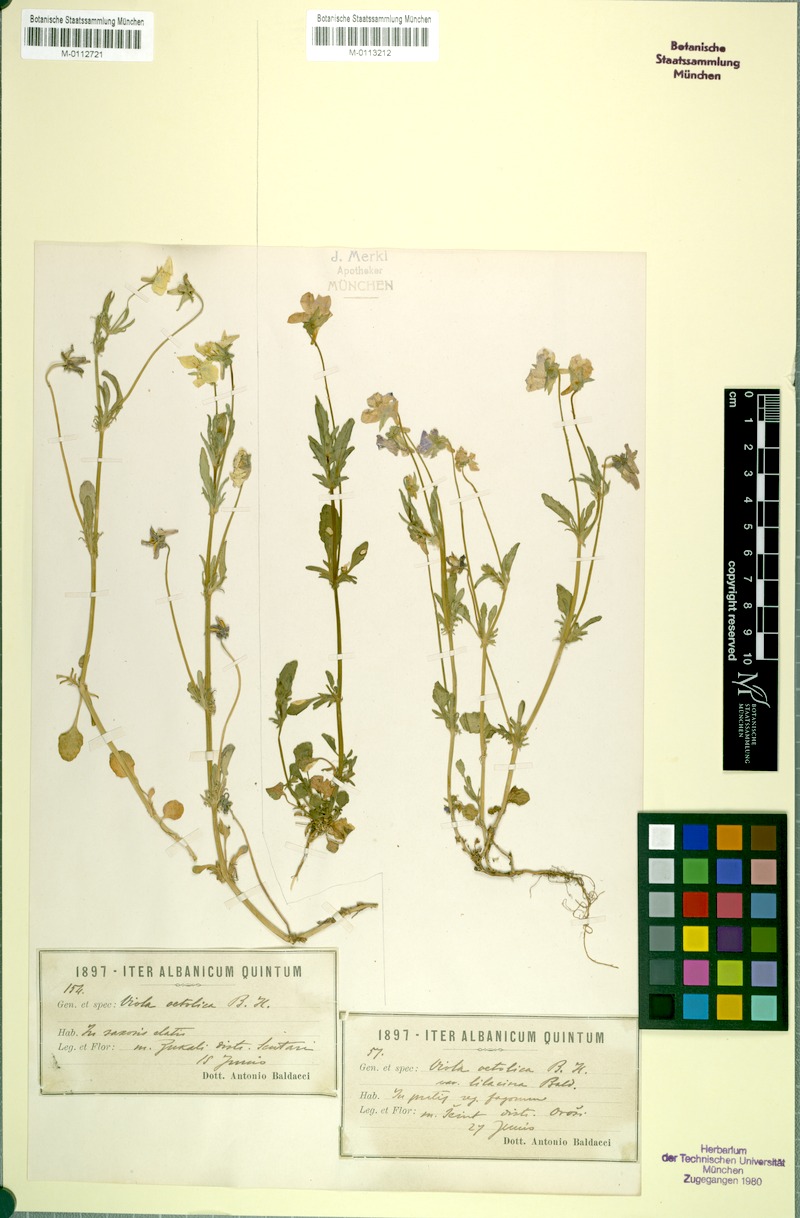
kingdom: Plantae
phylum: Tracheophyta
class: Magnoliopsida
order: Malpighiales
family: Violaceae
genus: Viola
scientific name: Viola aetolica
